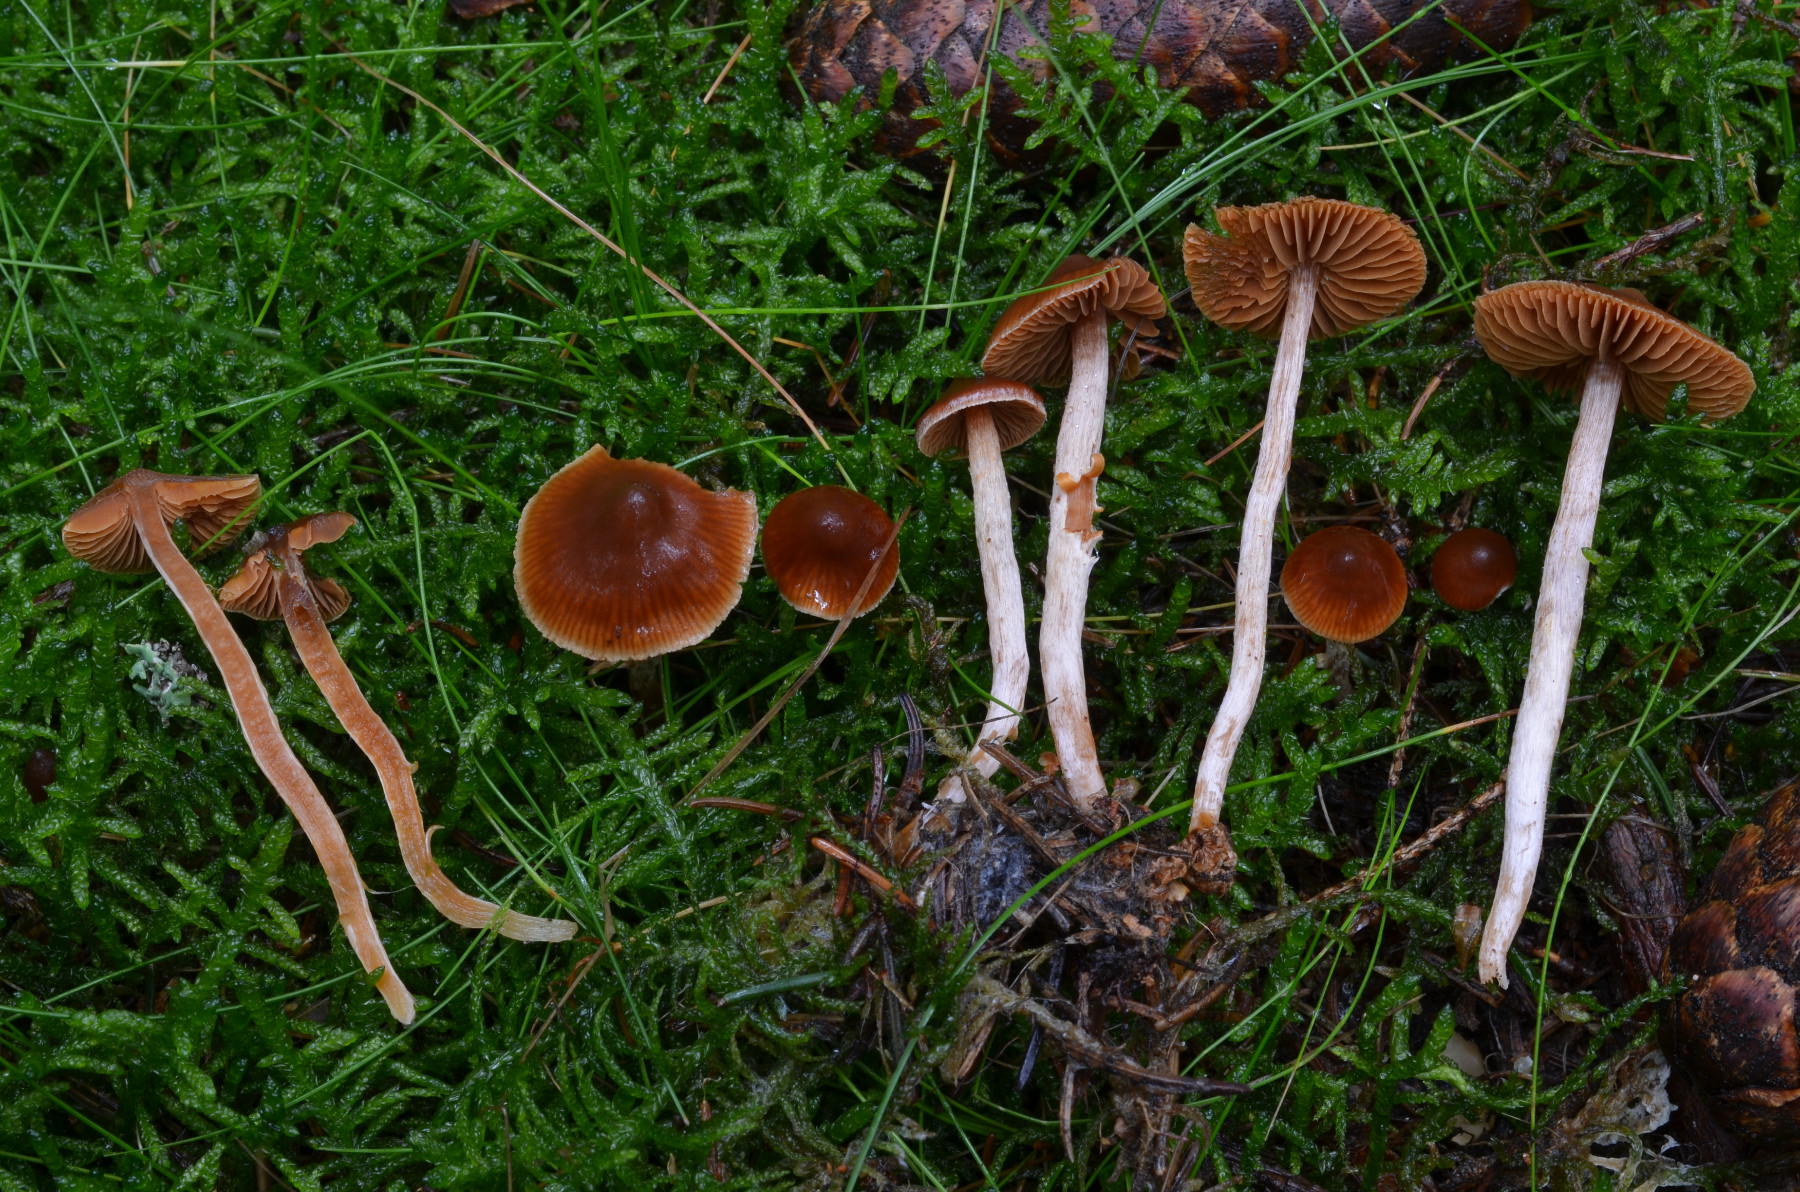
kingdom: Fungi
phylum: Basidiomycota
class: Agaricomycetes
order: Agaricales
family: Cortinariaceae
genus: Cortinarius
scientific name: Cortinarius aurae
